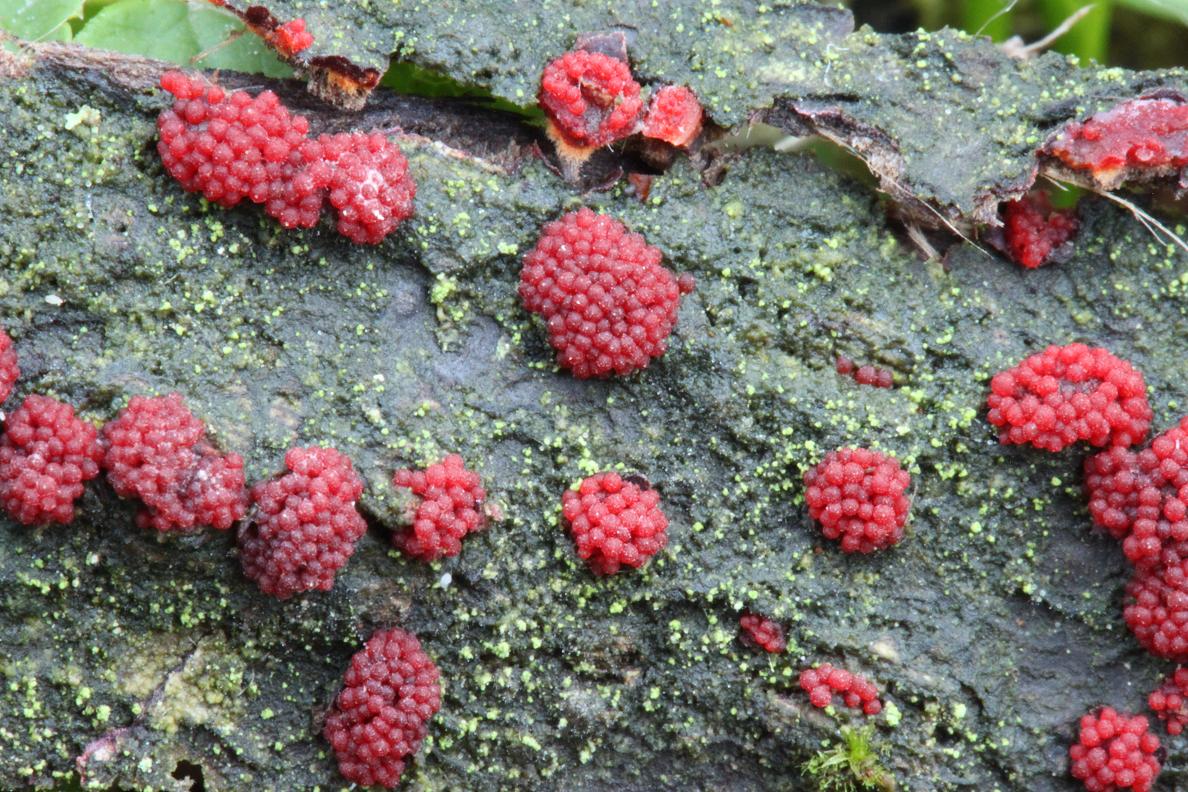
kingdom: Fungi
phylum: Ascomycota
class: Sordariomycetes
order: Hypocreales
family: Nectriaceae
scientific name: Nectriaceae
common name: cinnobersvampfamilien
